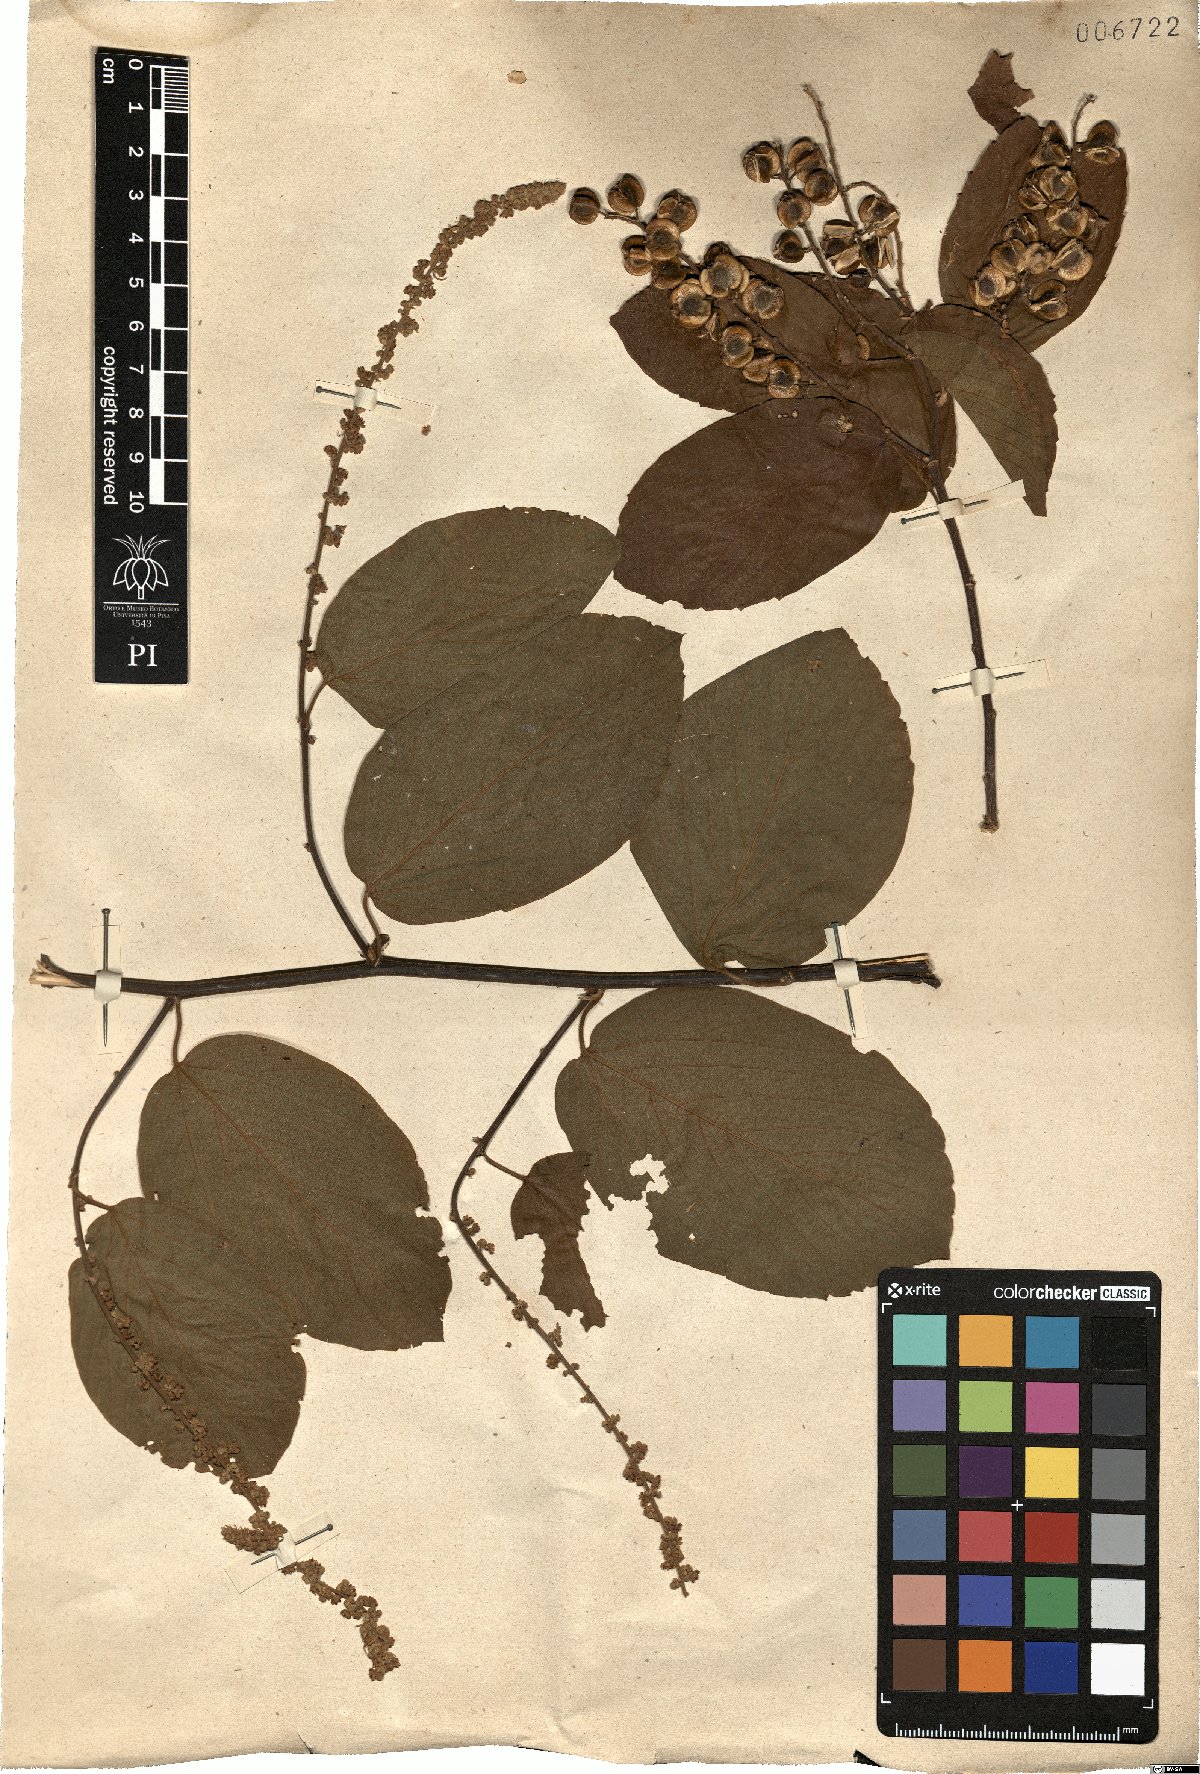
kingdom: Plantae
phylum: Tracheophyta
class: Magnoliopsida
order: Rosales
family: Rhamnaceae
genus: Gouania
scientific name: Gouania corylifolia
